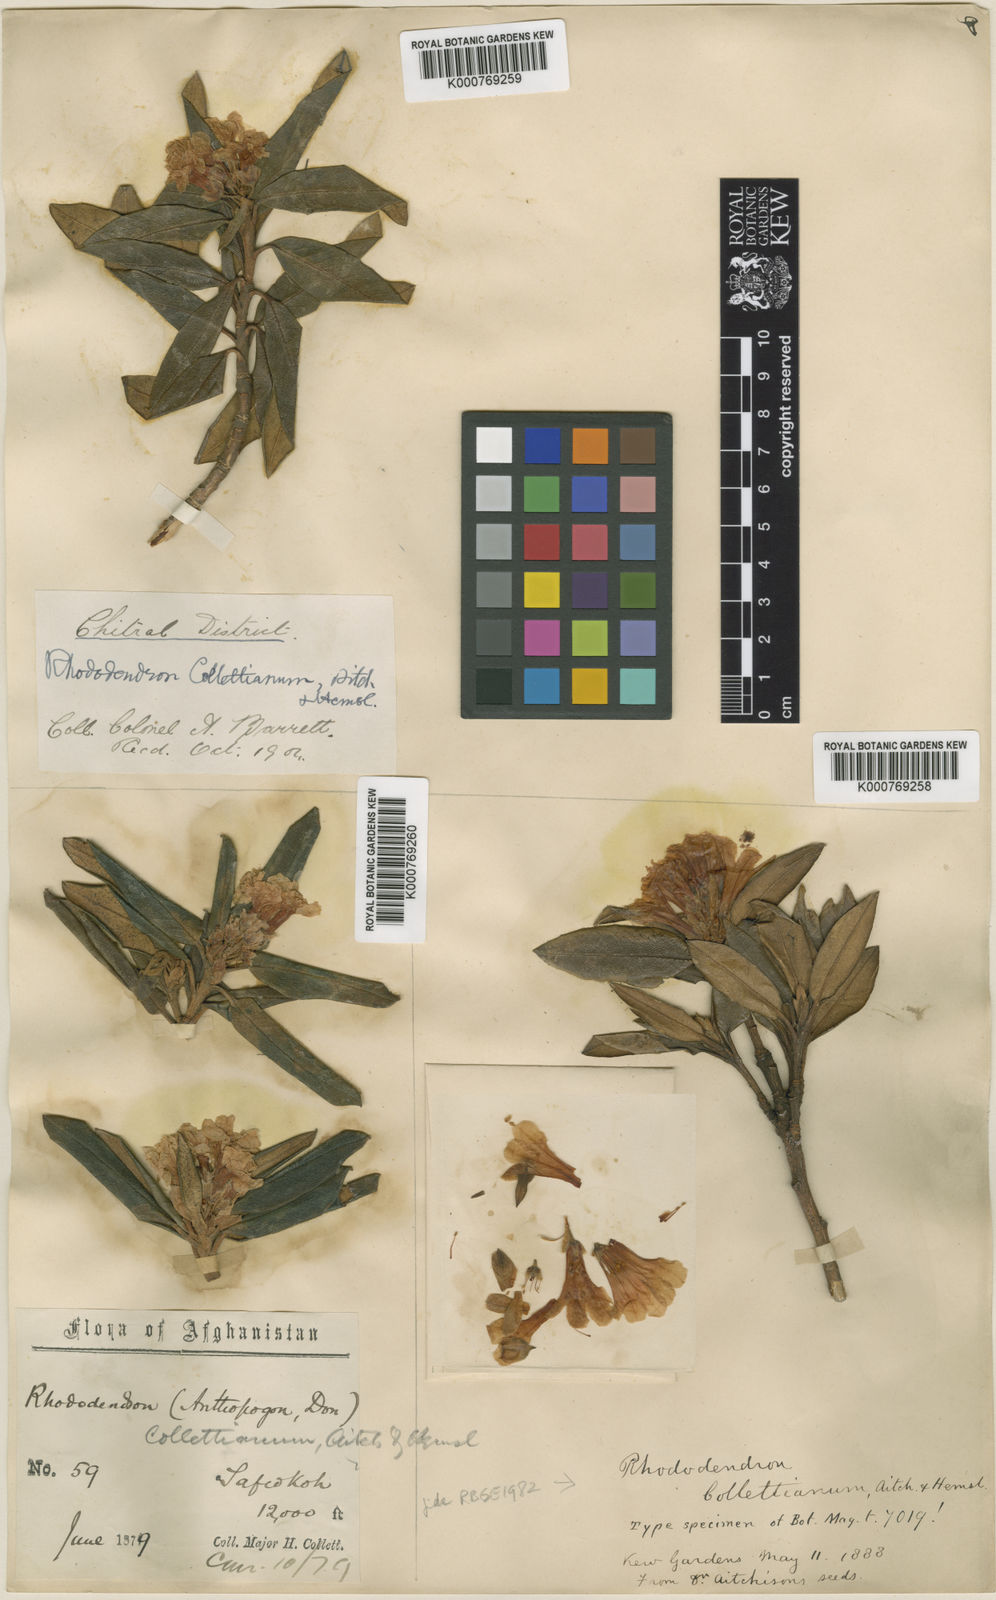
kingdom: Plantae
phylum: Tracheophyta
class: Magnoliopsida
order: Ericales
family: Ericaceae
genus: Rhododendron
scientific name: Rhododendron
